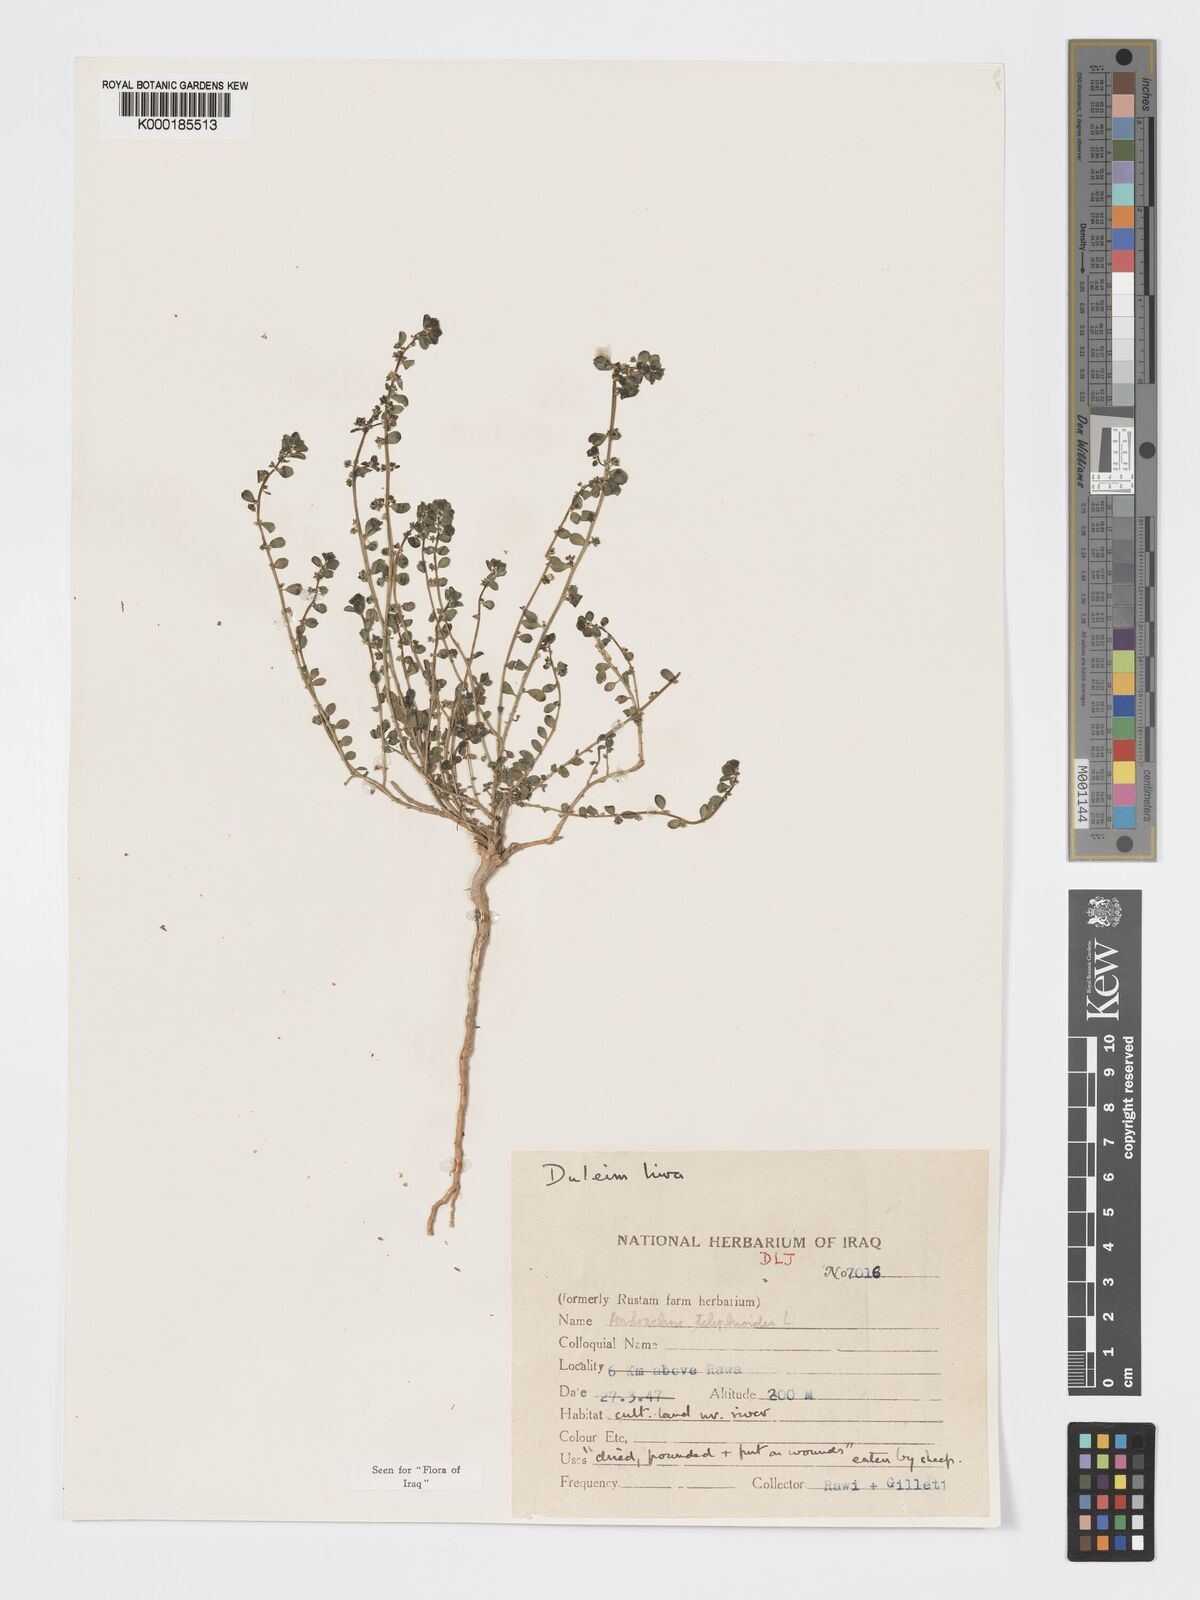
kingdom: Plantae
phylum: Tracheophyta
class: Magnoliopsida
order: Malpighiales
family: Phyllanthaceae
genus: Andrachne
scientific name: Andrachne telephioides
